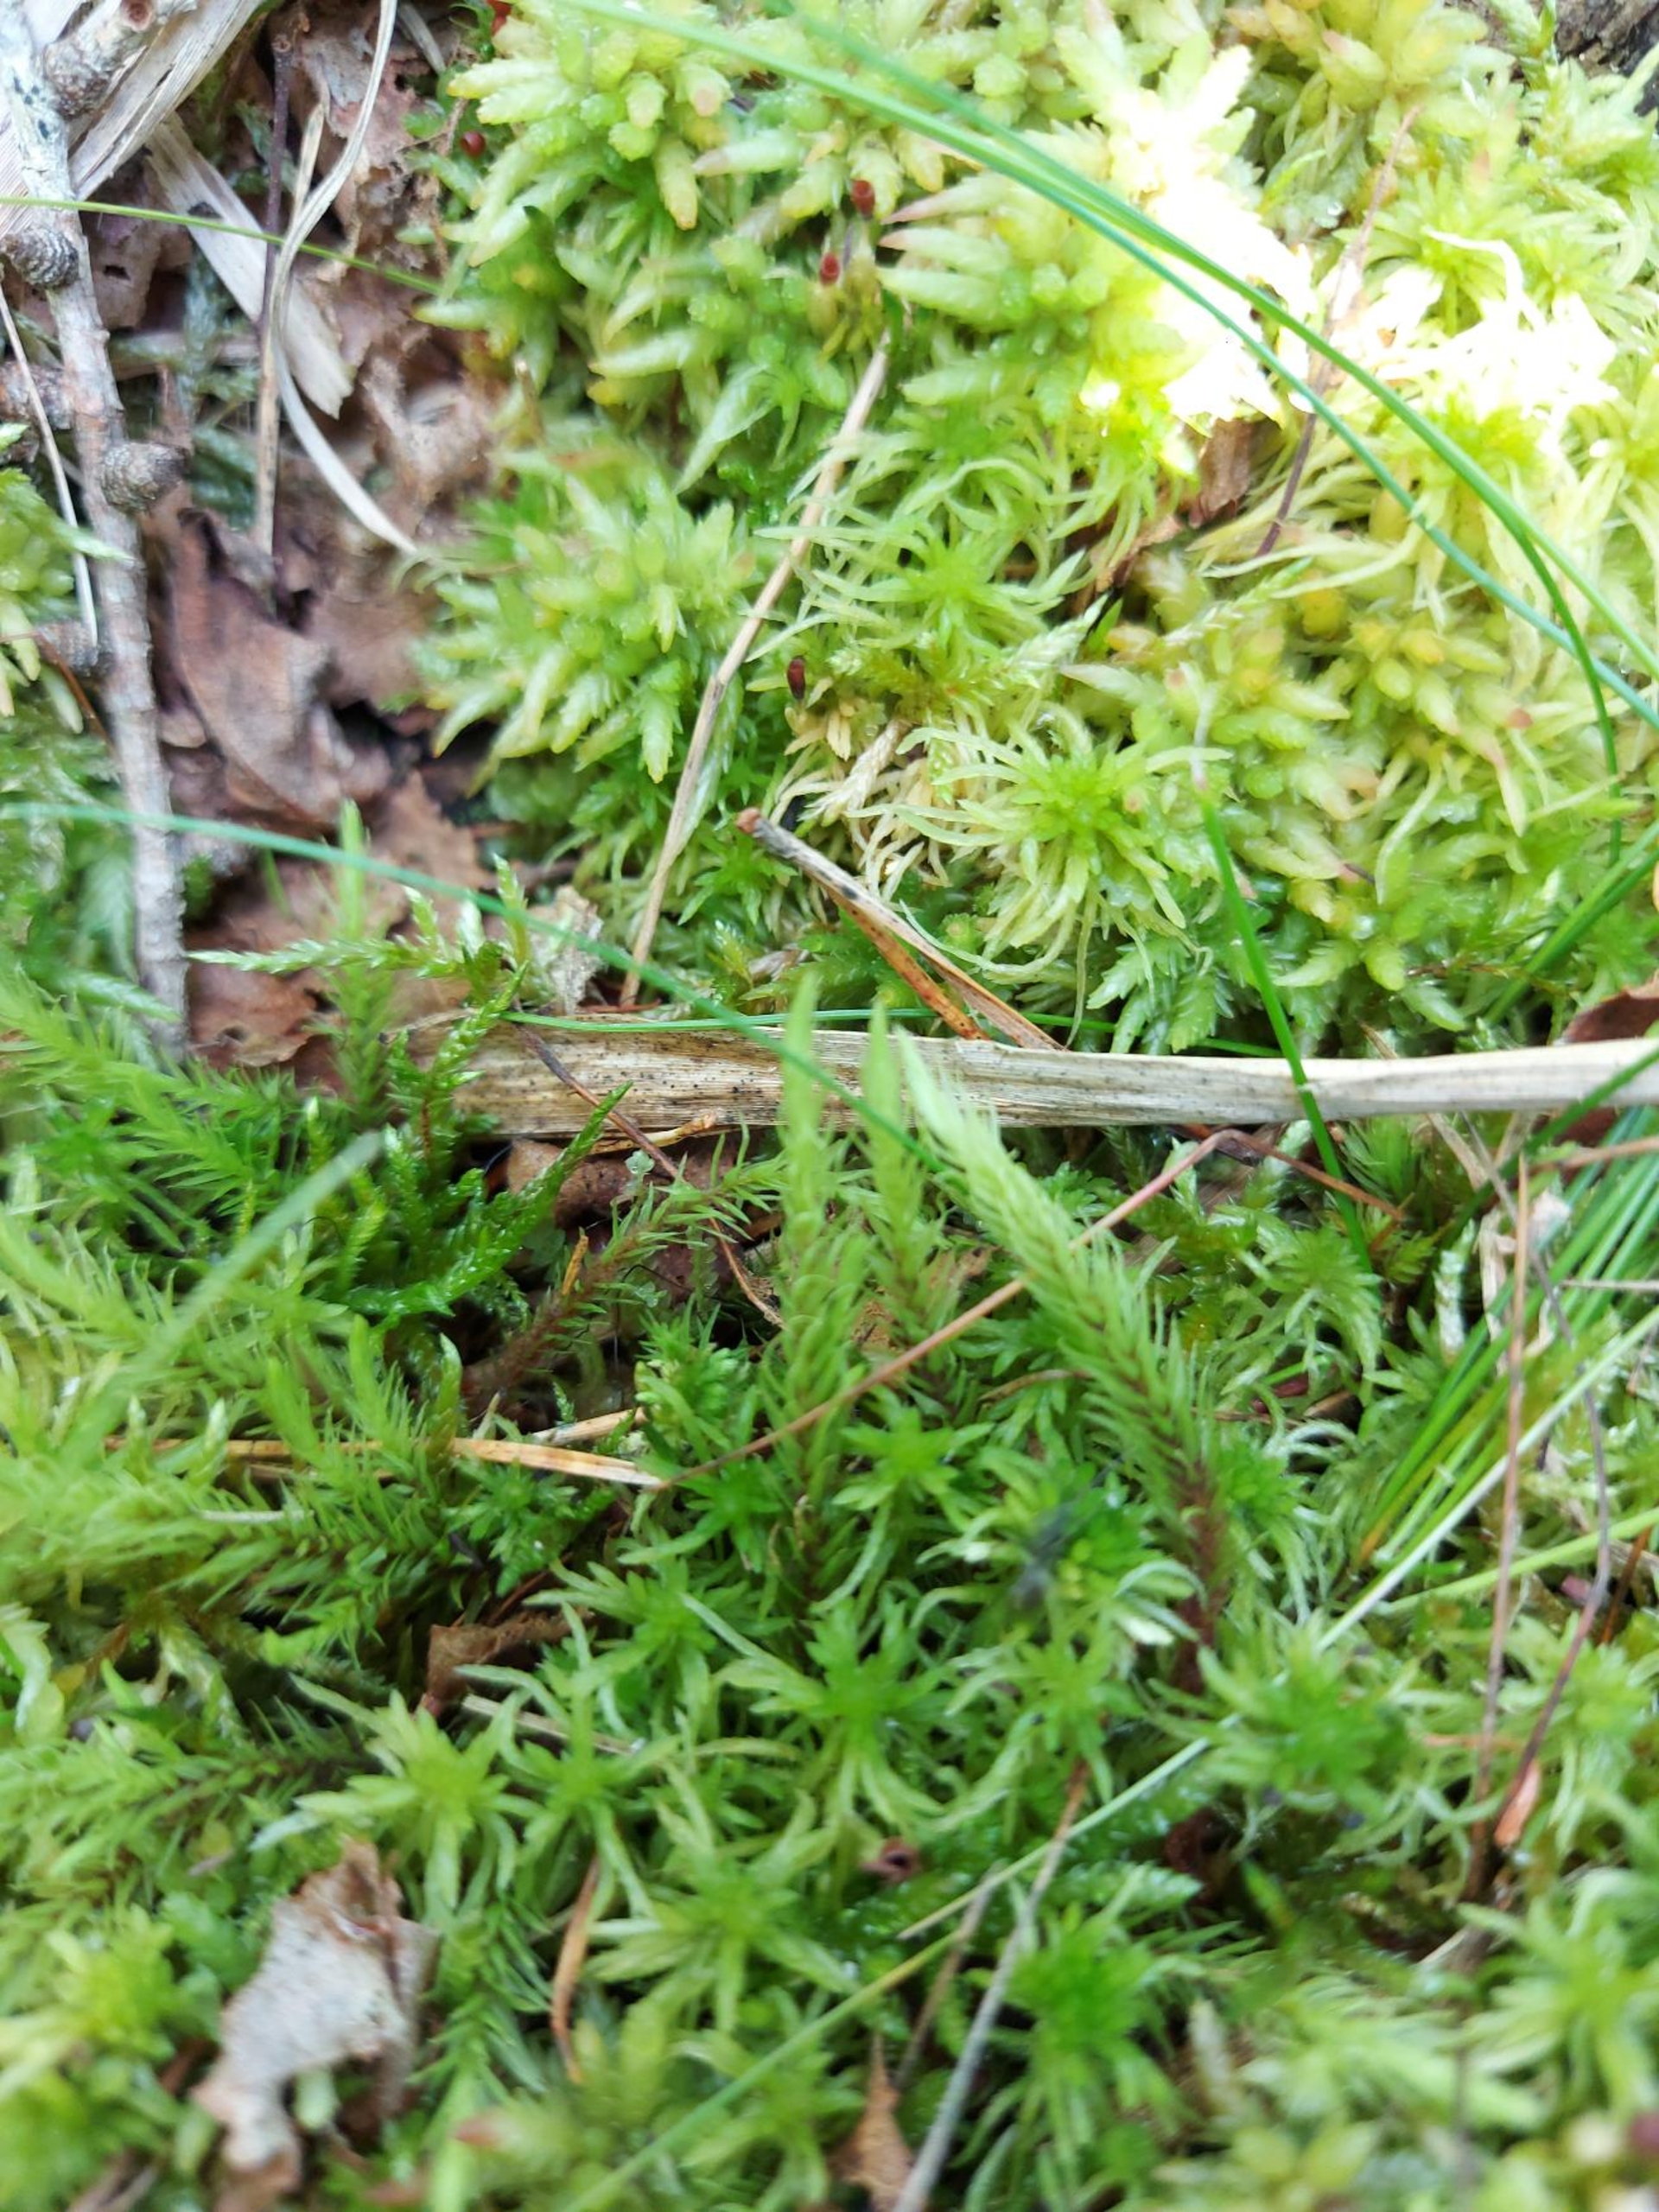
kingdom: Plantae
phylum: Bryophyta
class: Bryopsida
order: Aulacomniales
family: Aulacomniaceae
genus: Aulacomnium
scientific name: Aulacomnium palustre
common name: Almindelig filtmos
